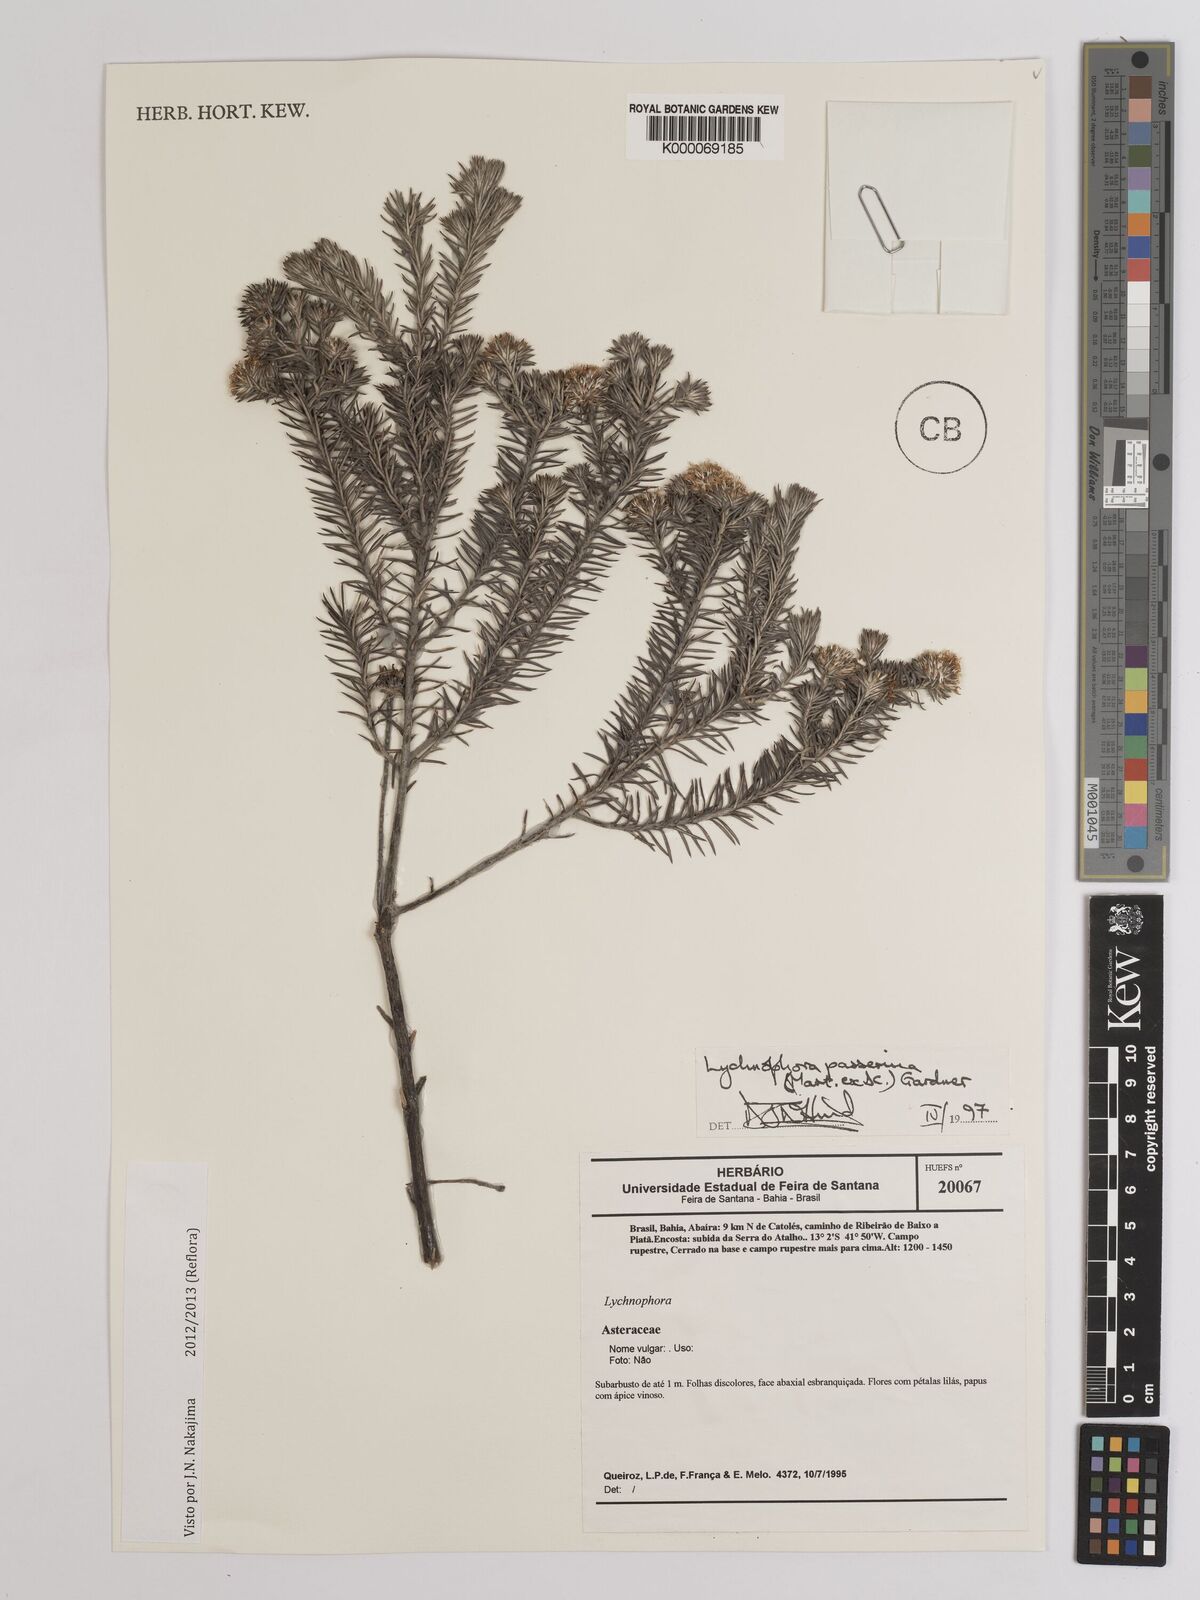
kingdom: Plantae
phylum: Tracheophyta
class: Magnoliopsida
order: Asterales
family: Asteraceae
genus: Lychnophora
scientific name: Lychnophora passerina
